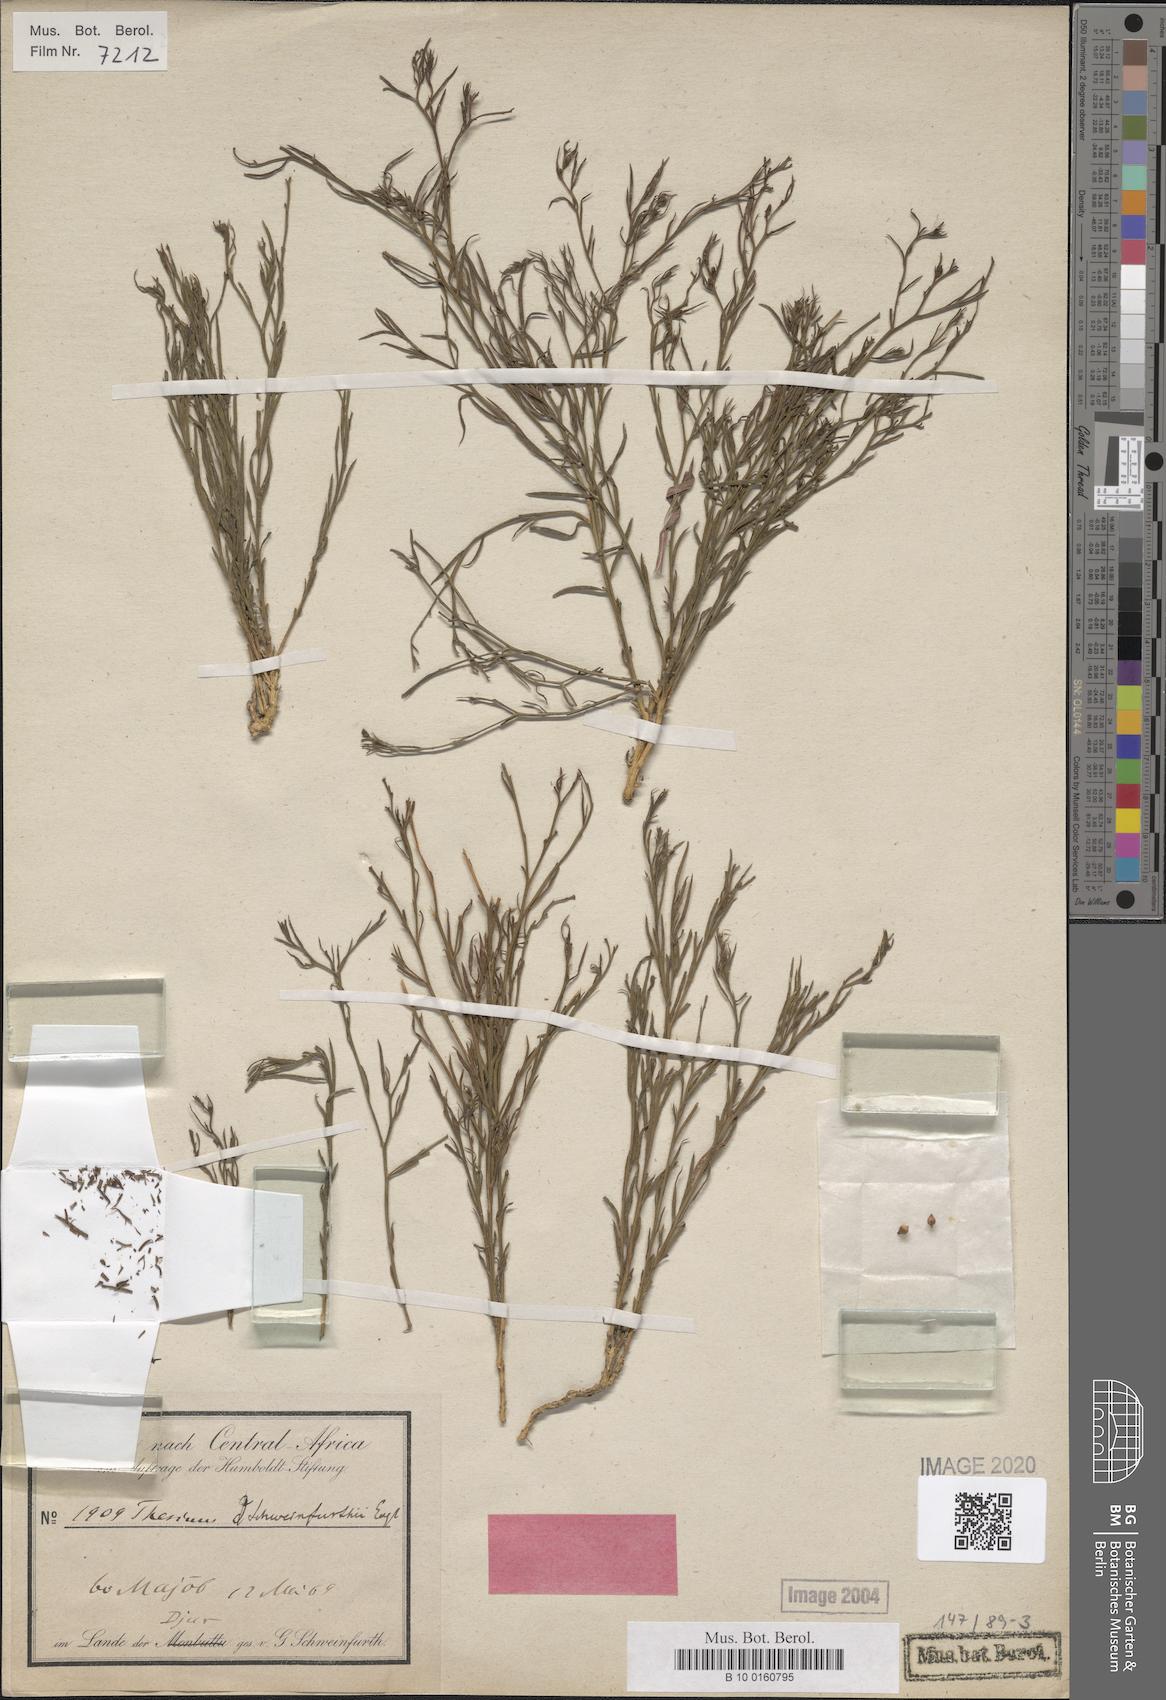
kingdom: Plantae
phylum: Tracheophyta
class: Magnoliopsida
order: Santalales
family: Thesiaceae
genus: Thesium
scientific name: Thesium schweinfurthii
